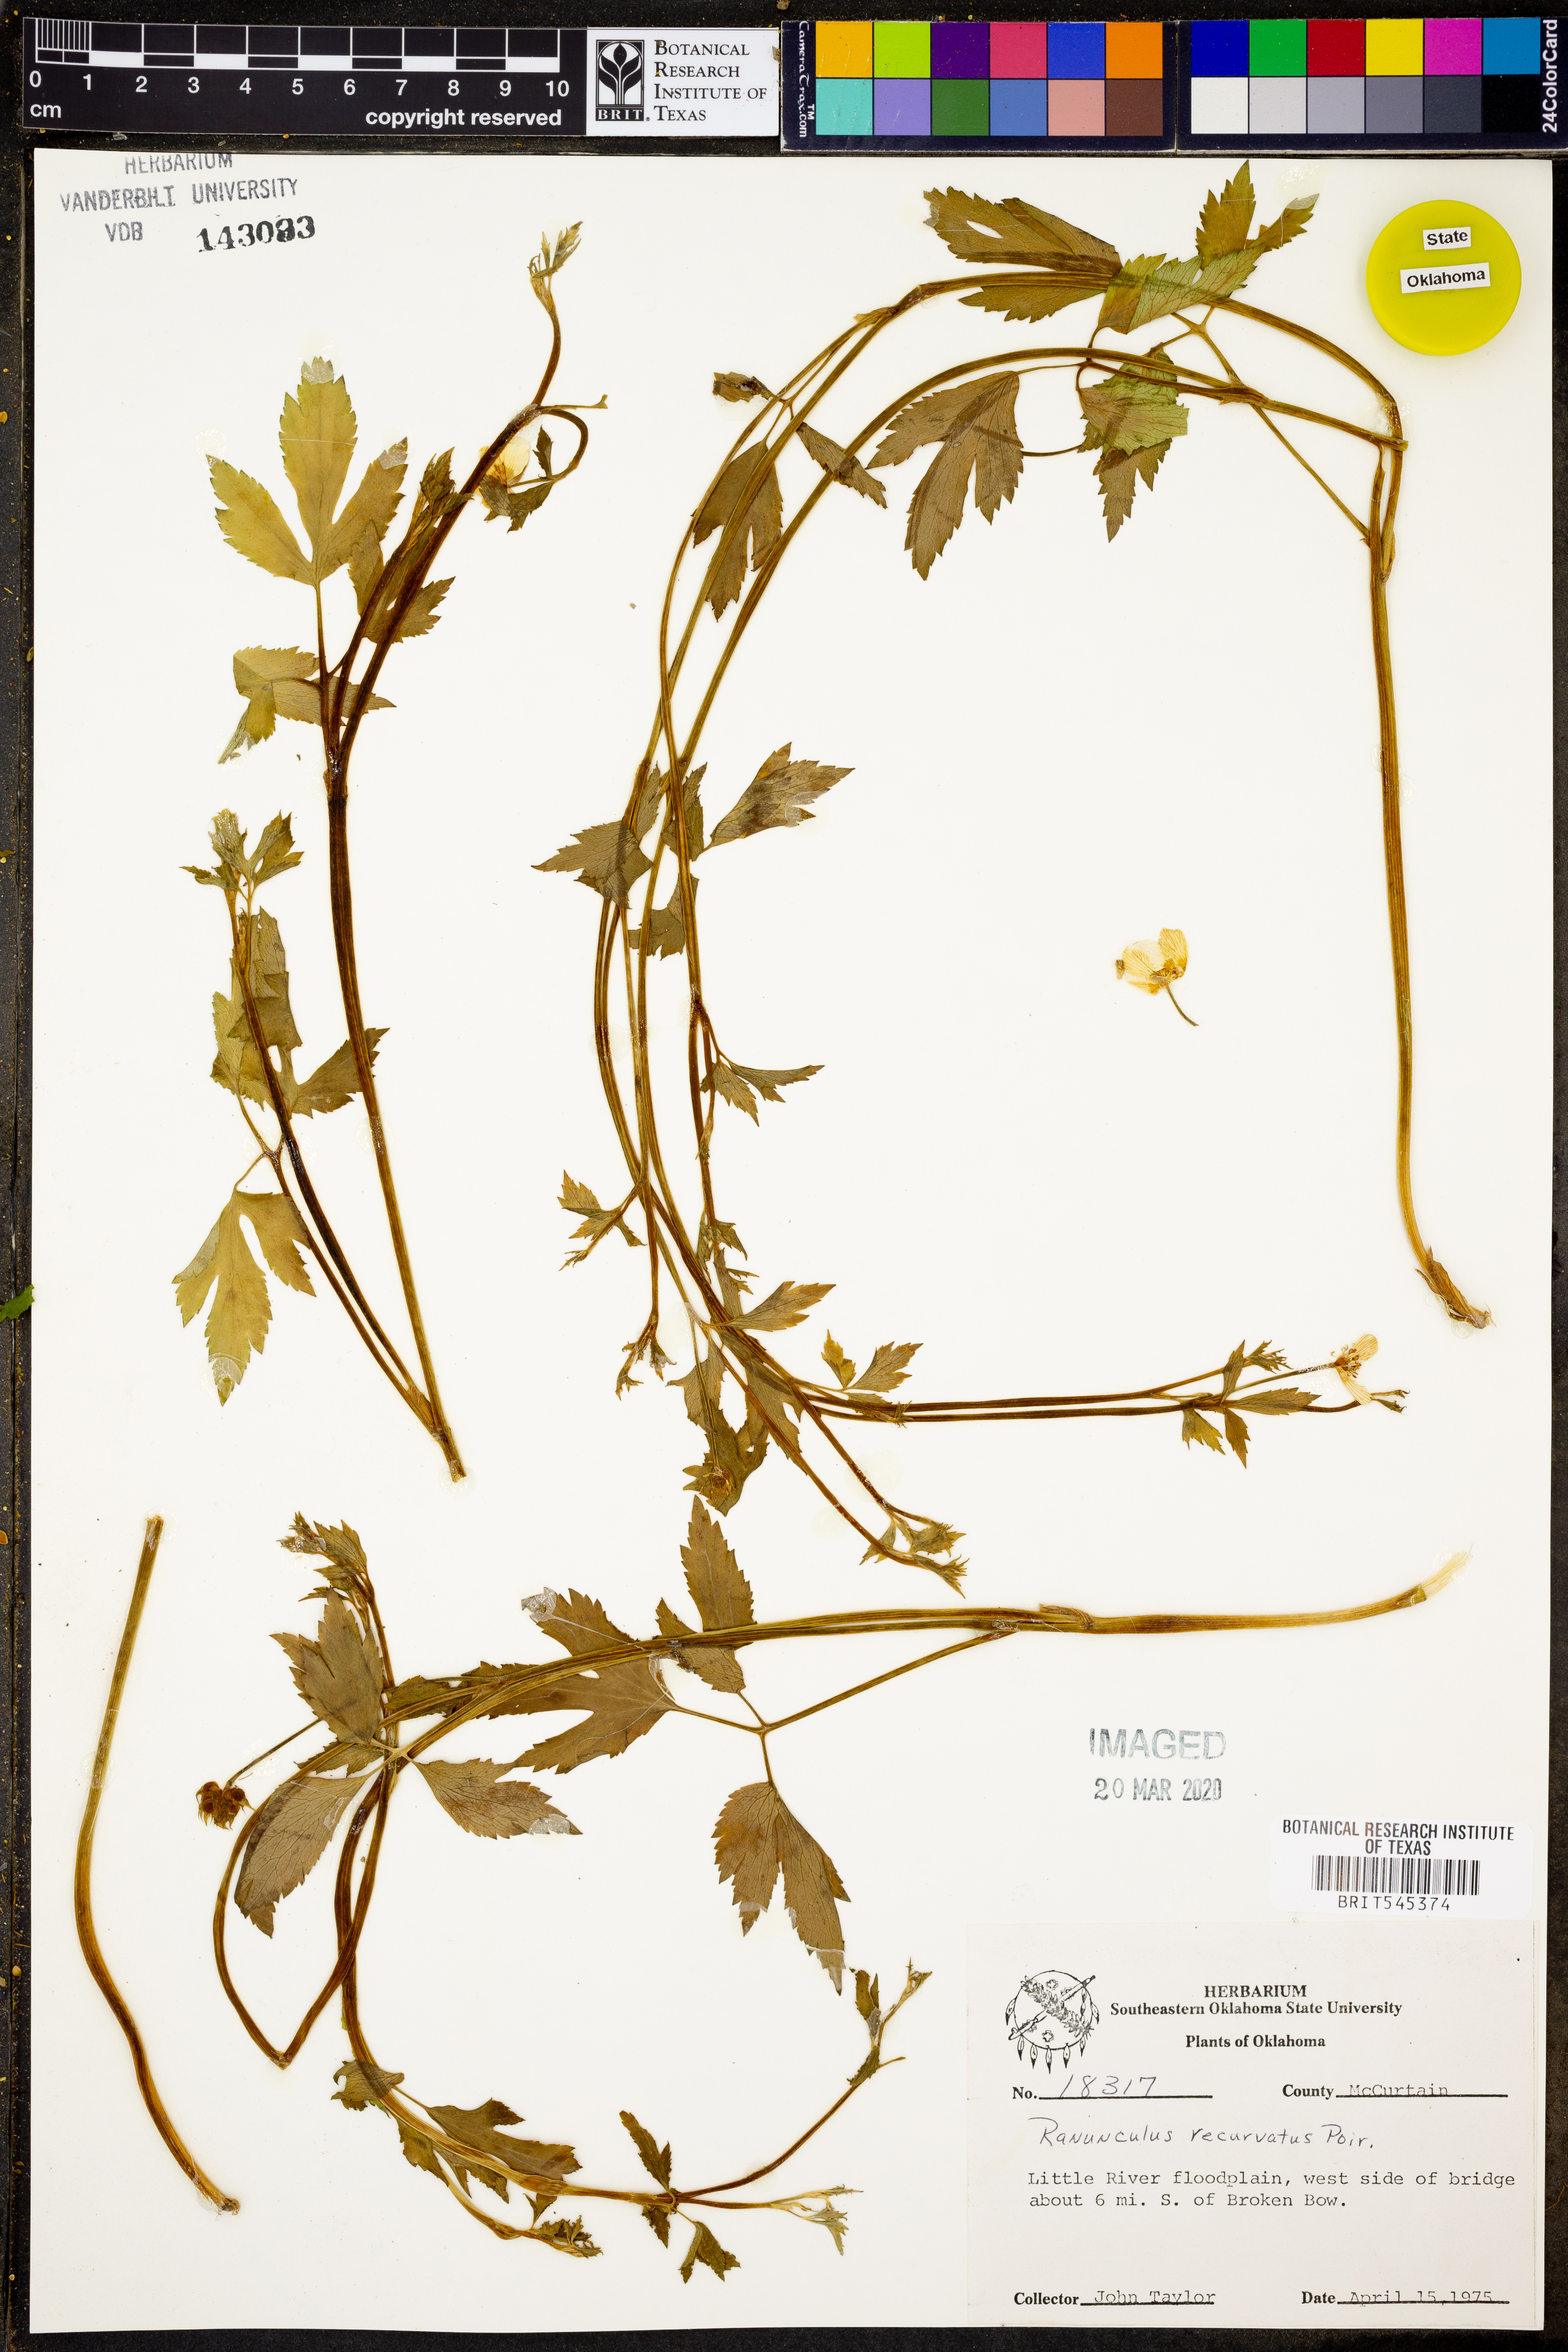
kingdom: Plantae
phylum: Tracheophyta
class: Magnoliopsida
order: Ranunculales
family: Ranunculaceae
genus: Ranunculus
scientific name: Ranunculus recurvatus
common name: Blisterwort
